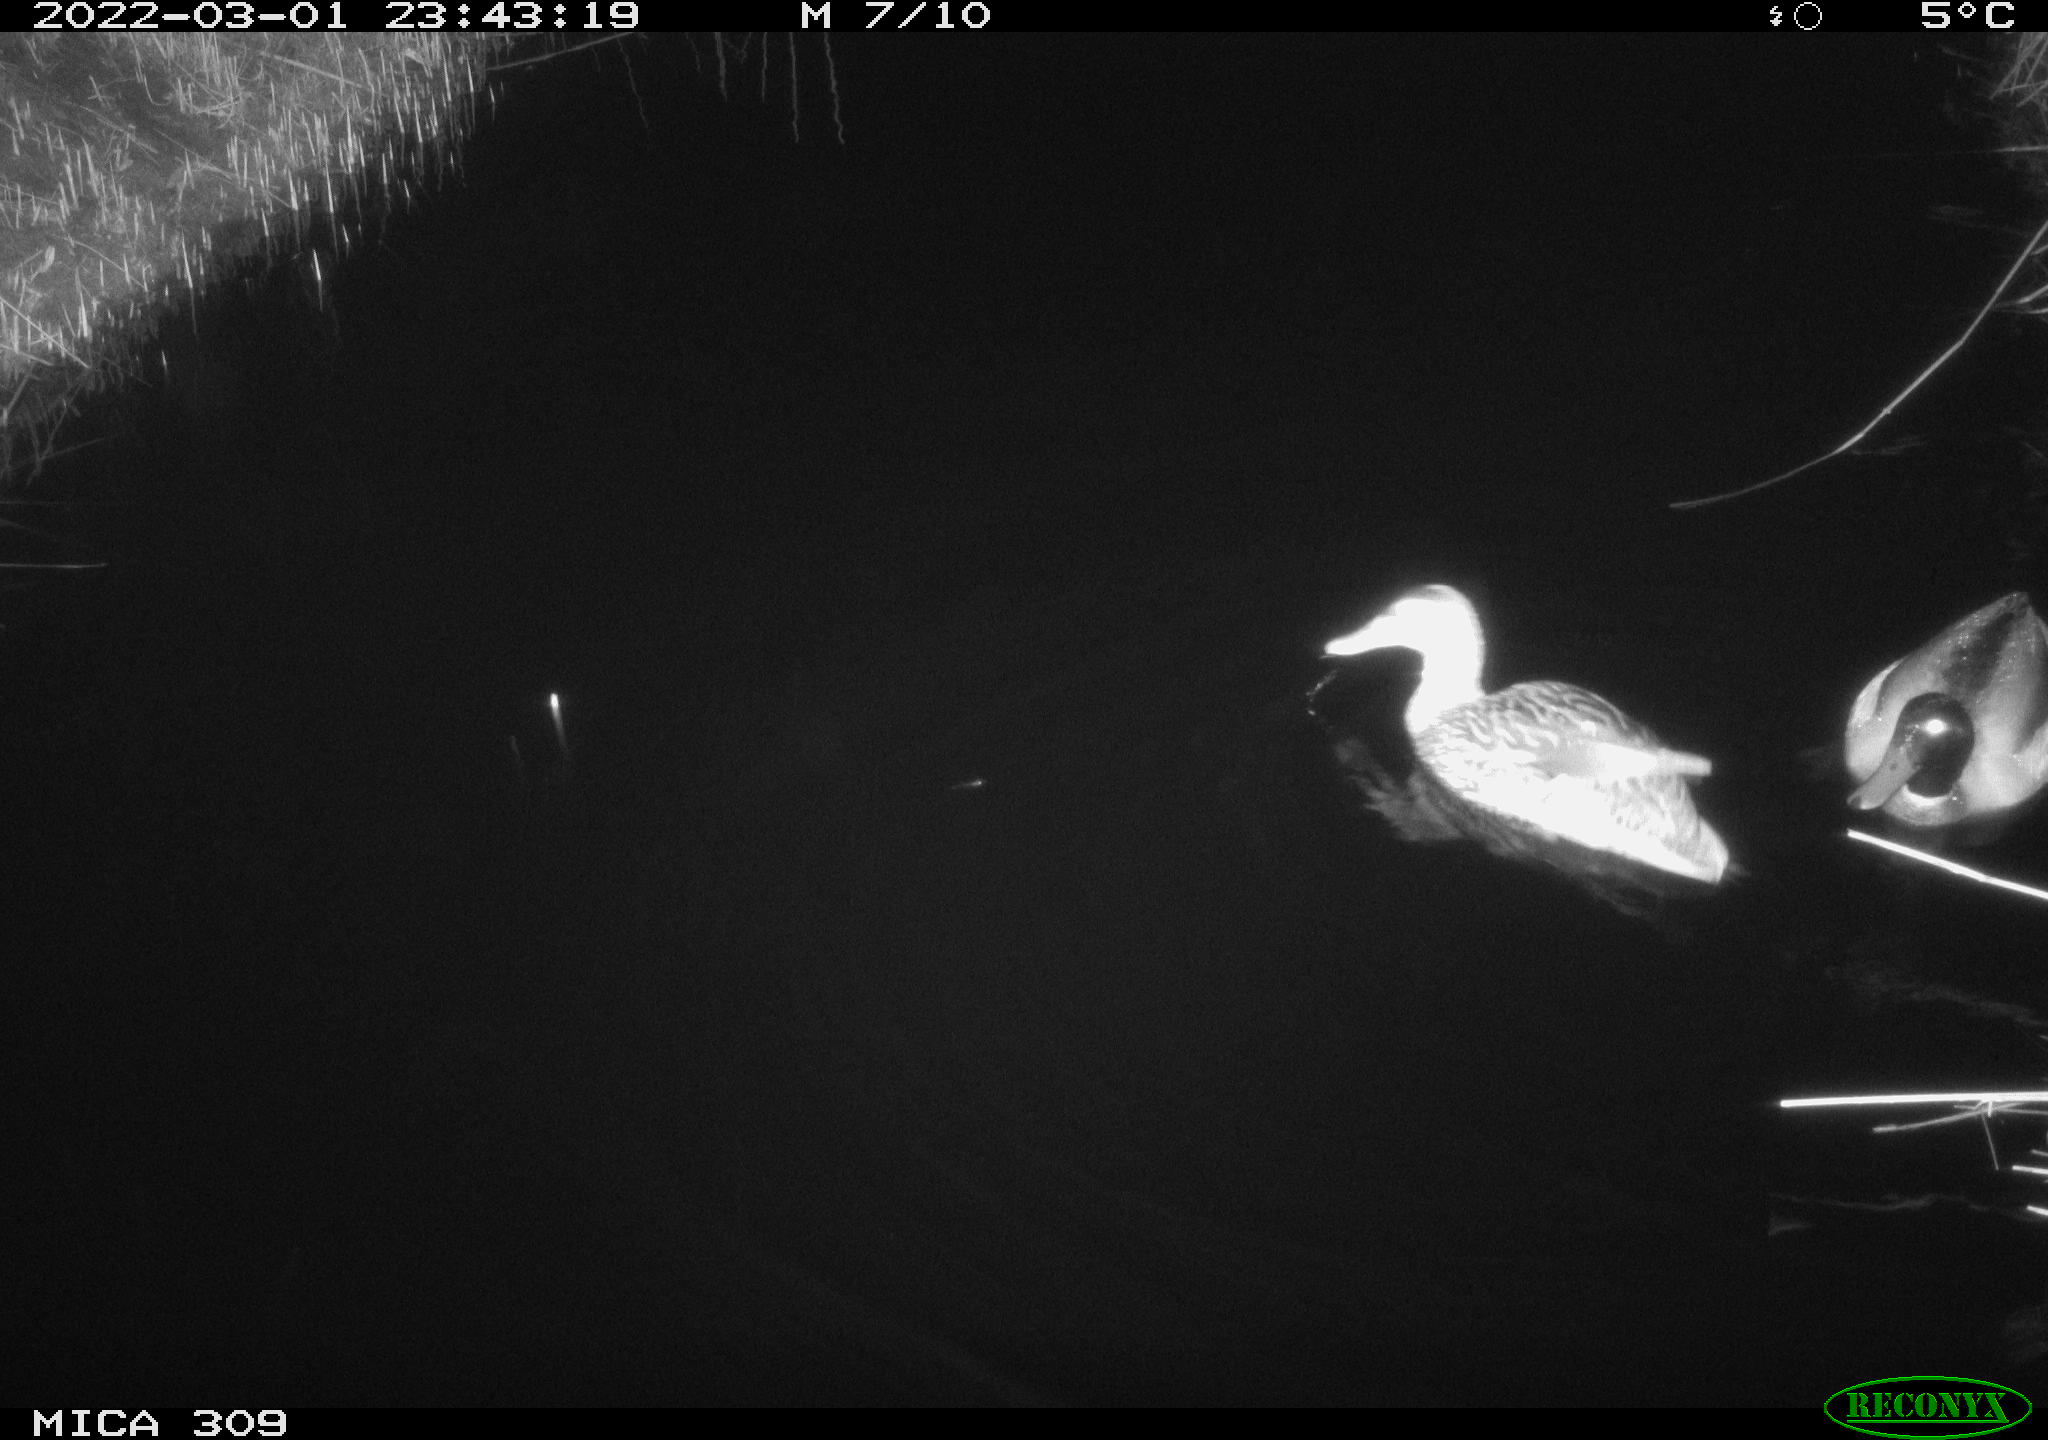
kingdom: Animalia
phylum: Chordata
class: Aves
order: Anseriformes
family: Anatidae
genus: Anas
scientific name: Anas platyrhynchos
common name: Mallard
